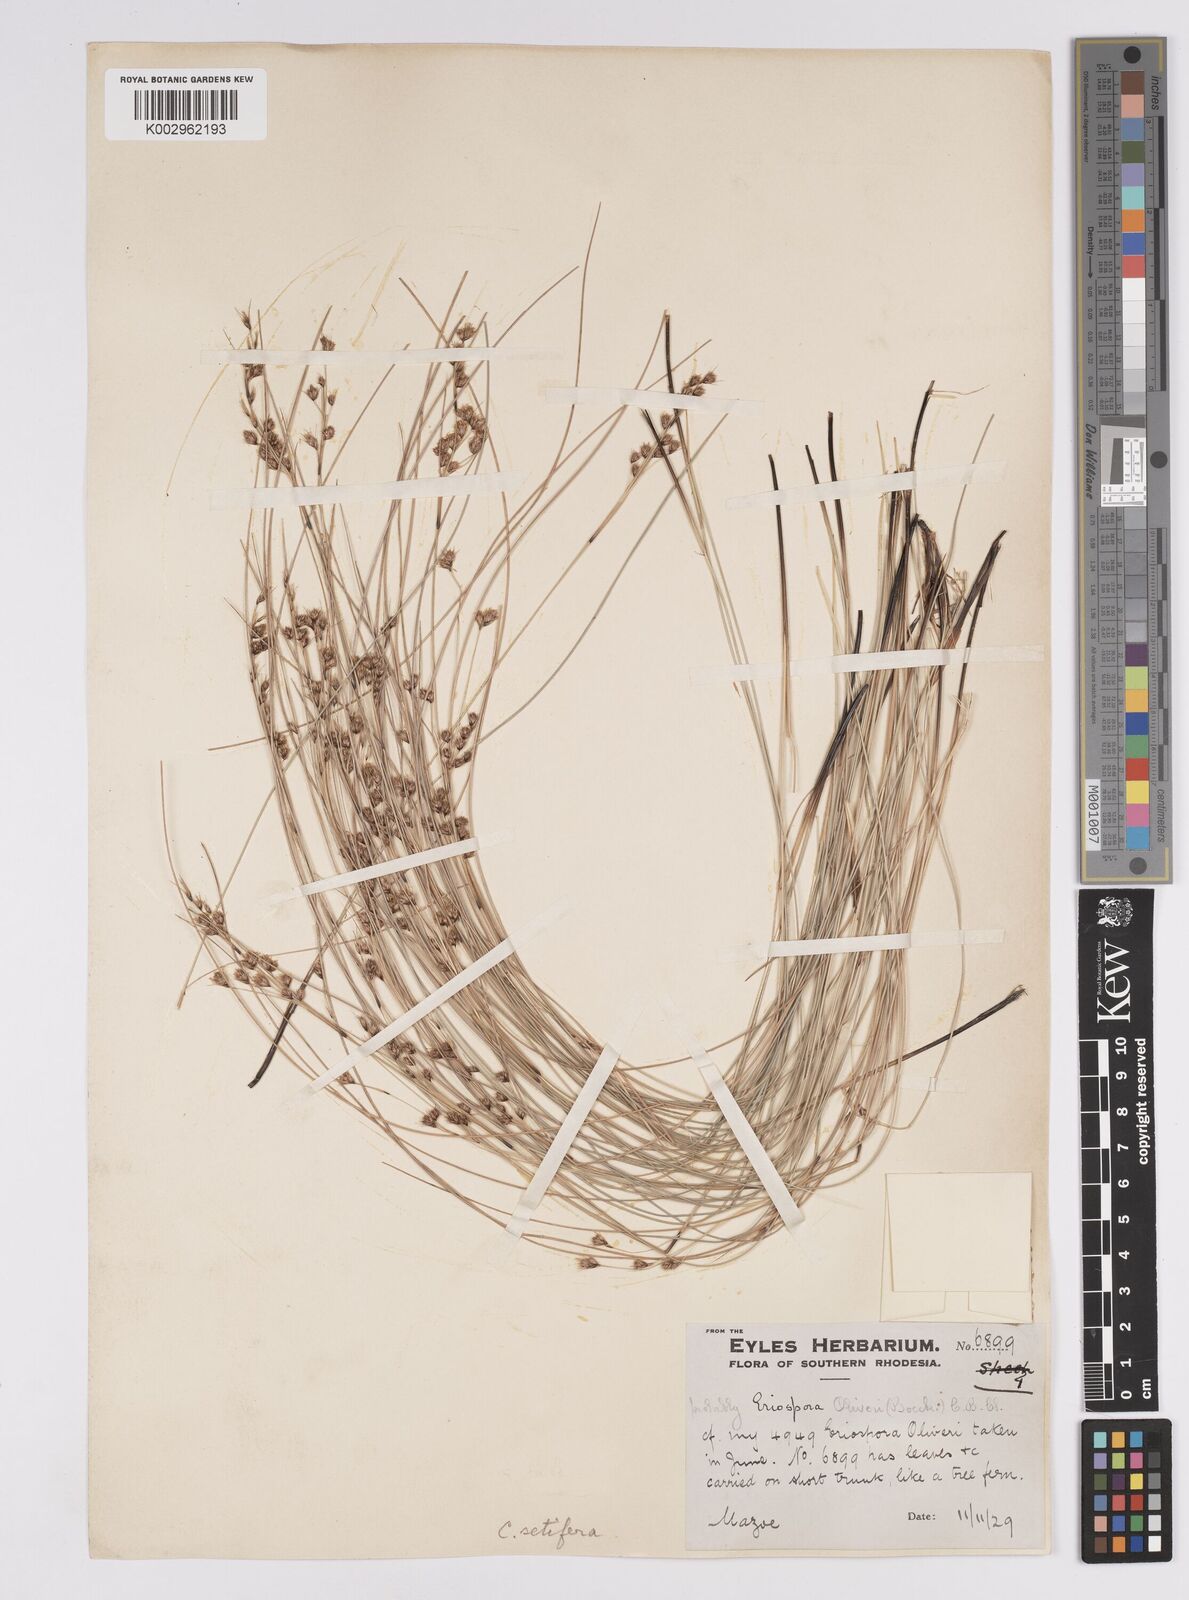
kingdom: Plantae
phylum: Tracheophyta
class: Liliopsida
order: Poales
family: Cyperaceae
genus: Coleochloa
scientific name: Coleochloa setifera
